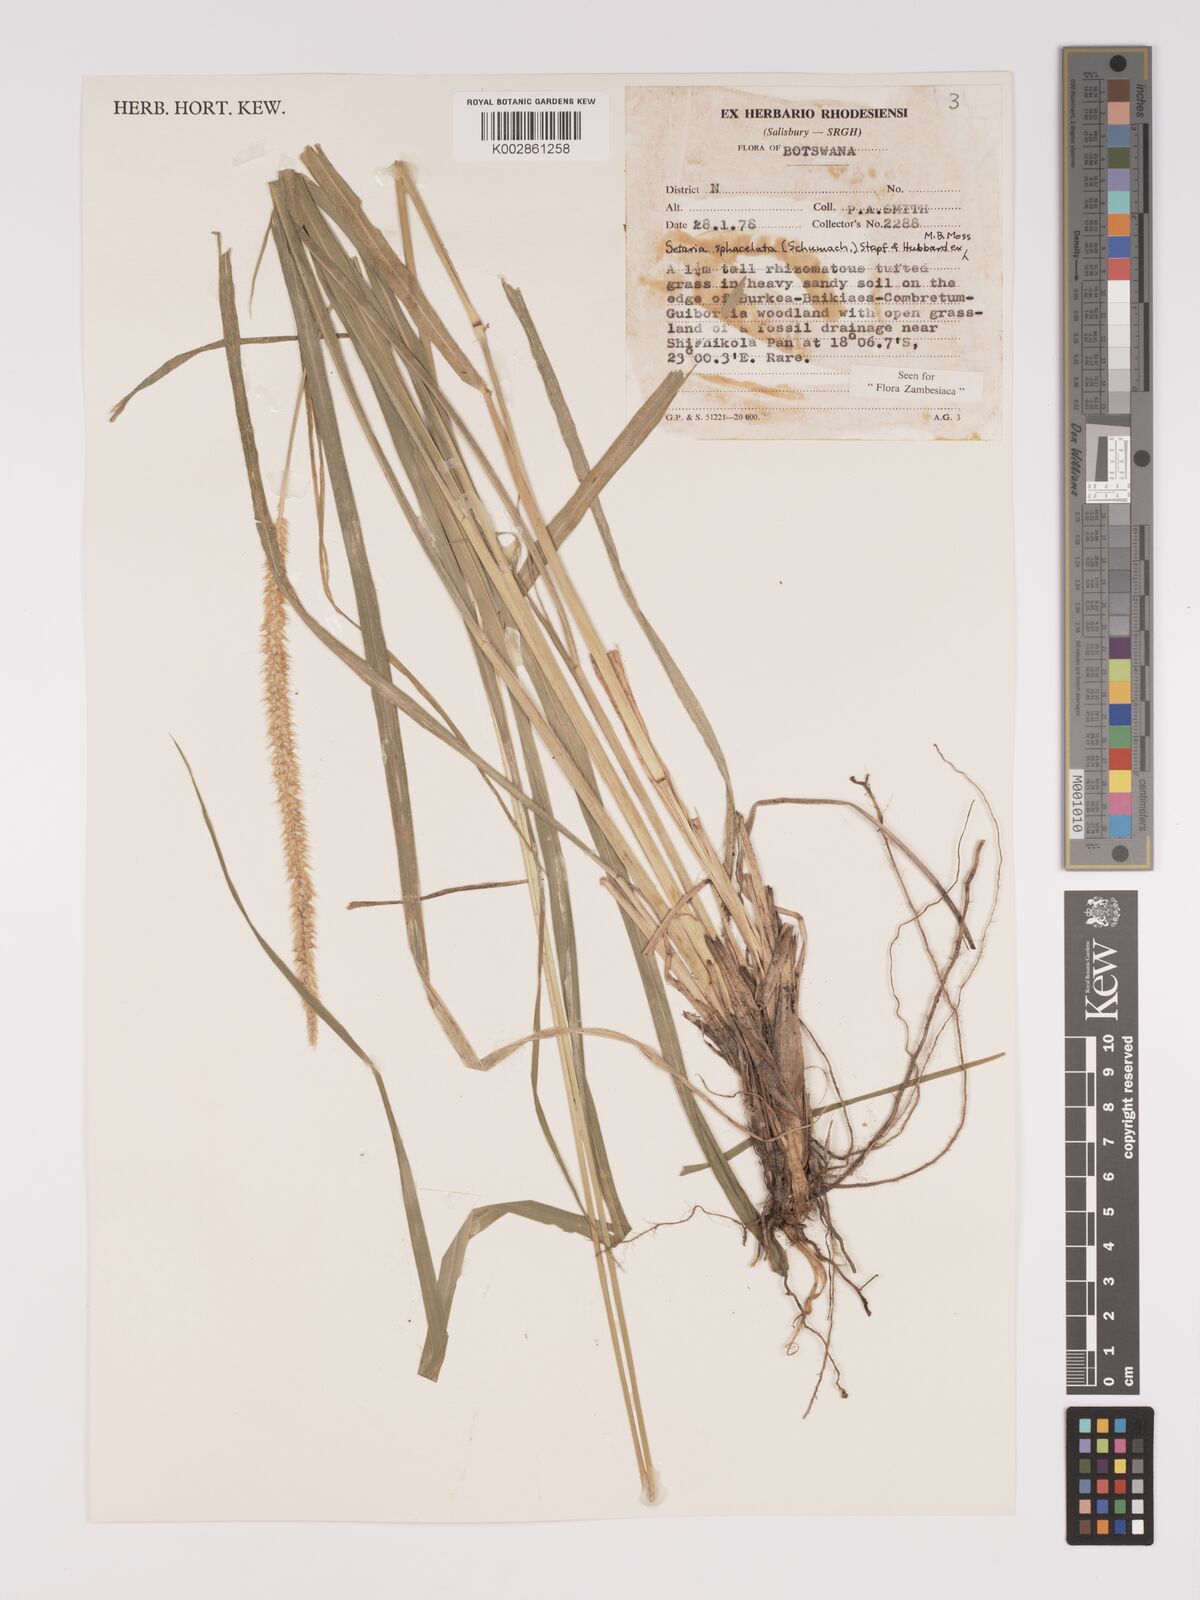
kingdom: Plantae
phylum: Tracheophyta
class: Liliopsida
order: Poales
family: Poaceae
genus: Setaria
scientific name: Setaria sphacelata
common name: African bristlegrass
